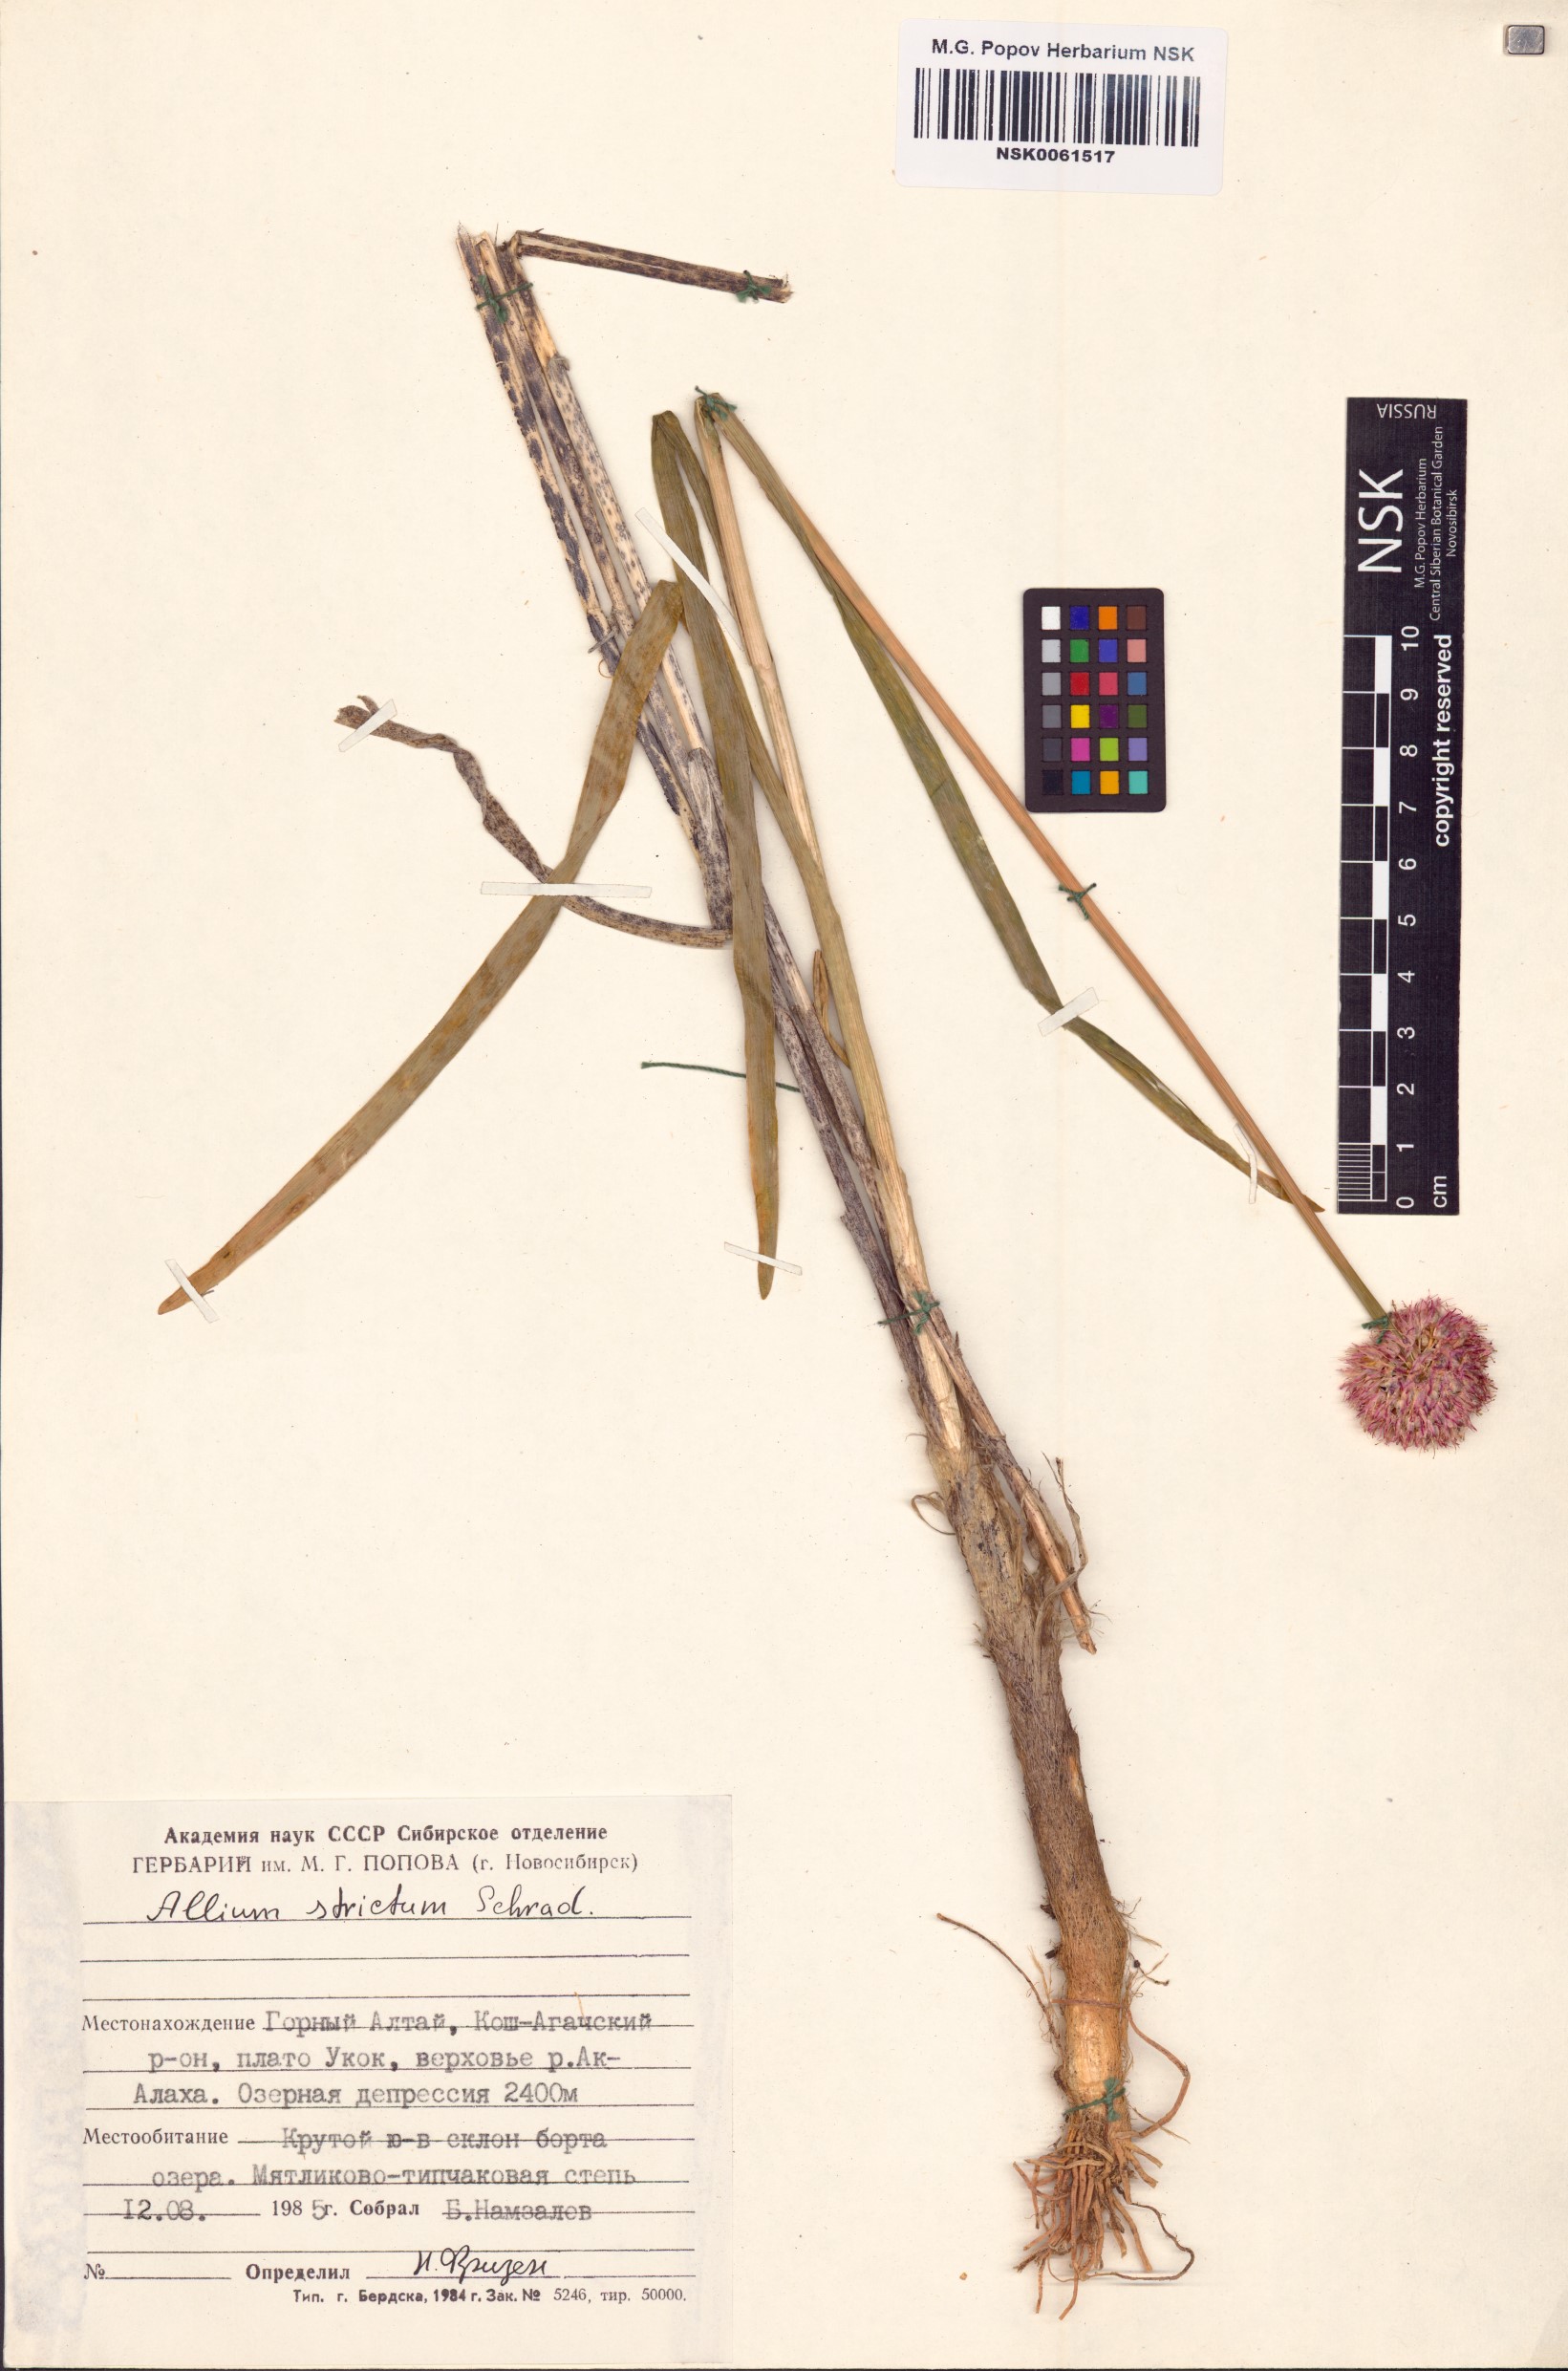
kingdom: Plantae
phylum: Tracheophyta
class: Liliopsida
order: Asparagales
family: Amaryllidaceae
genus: Allium
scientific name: Allium strictum
